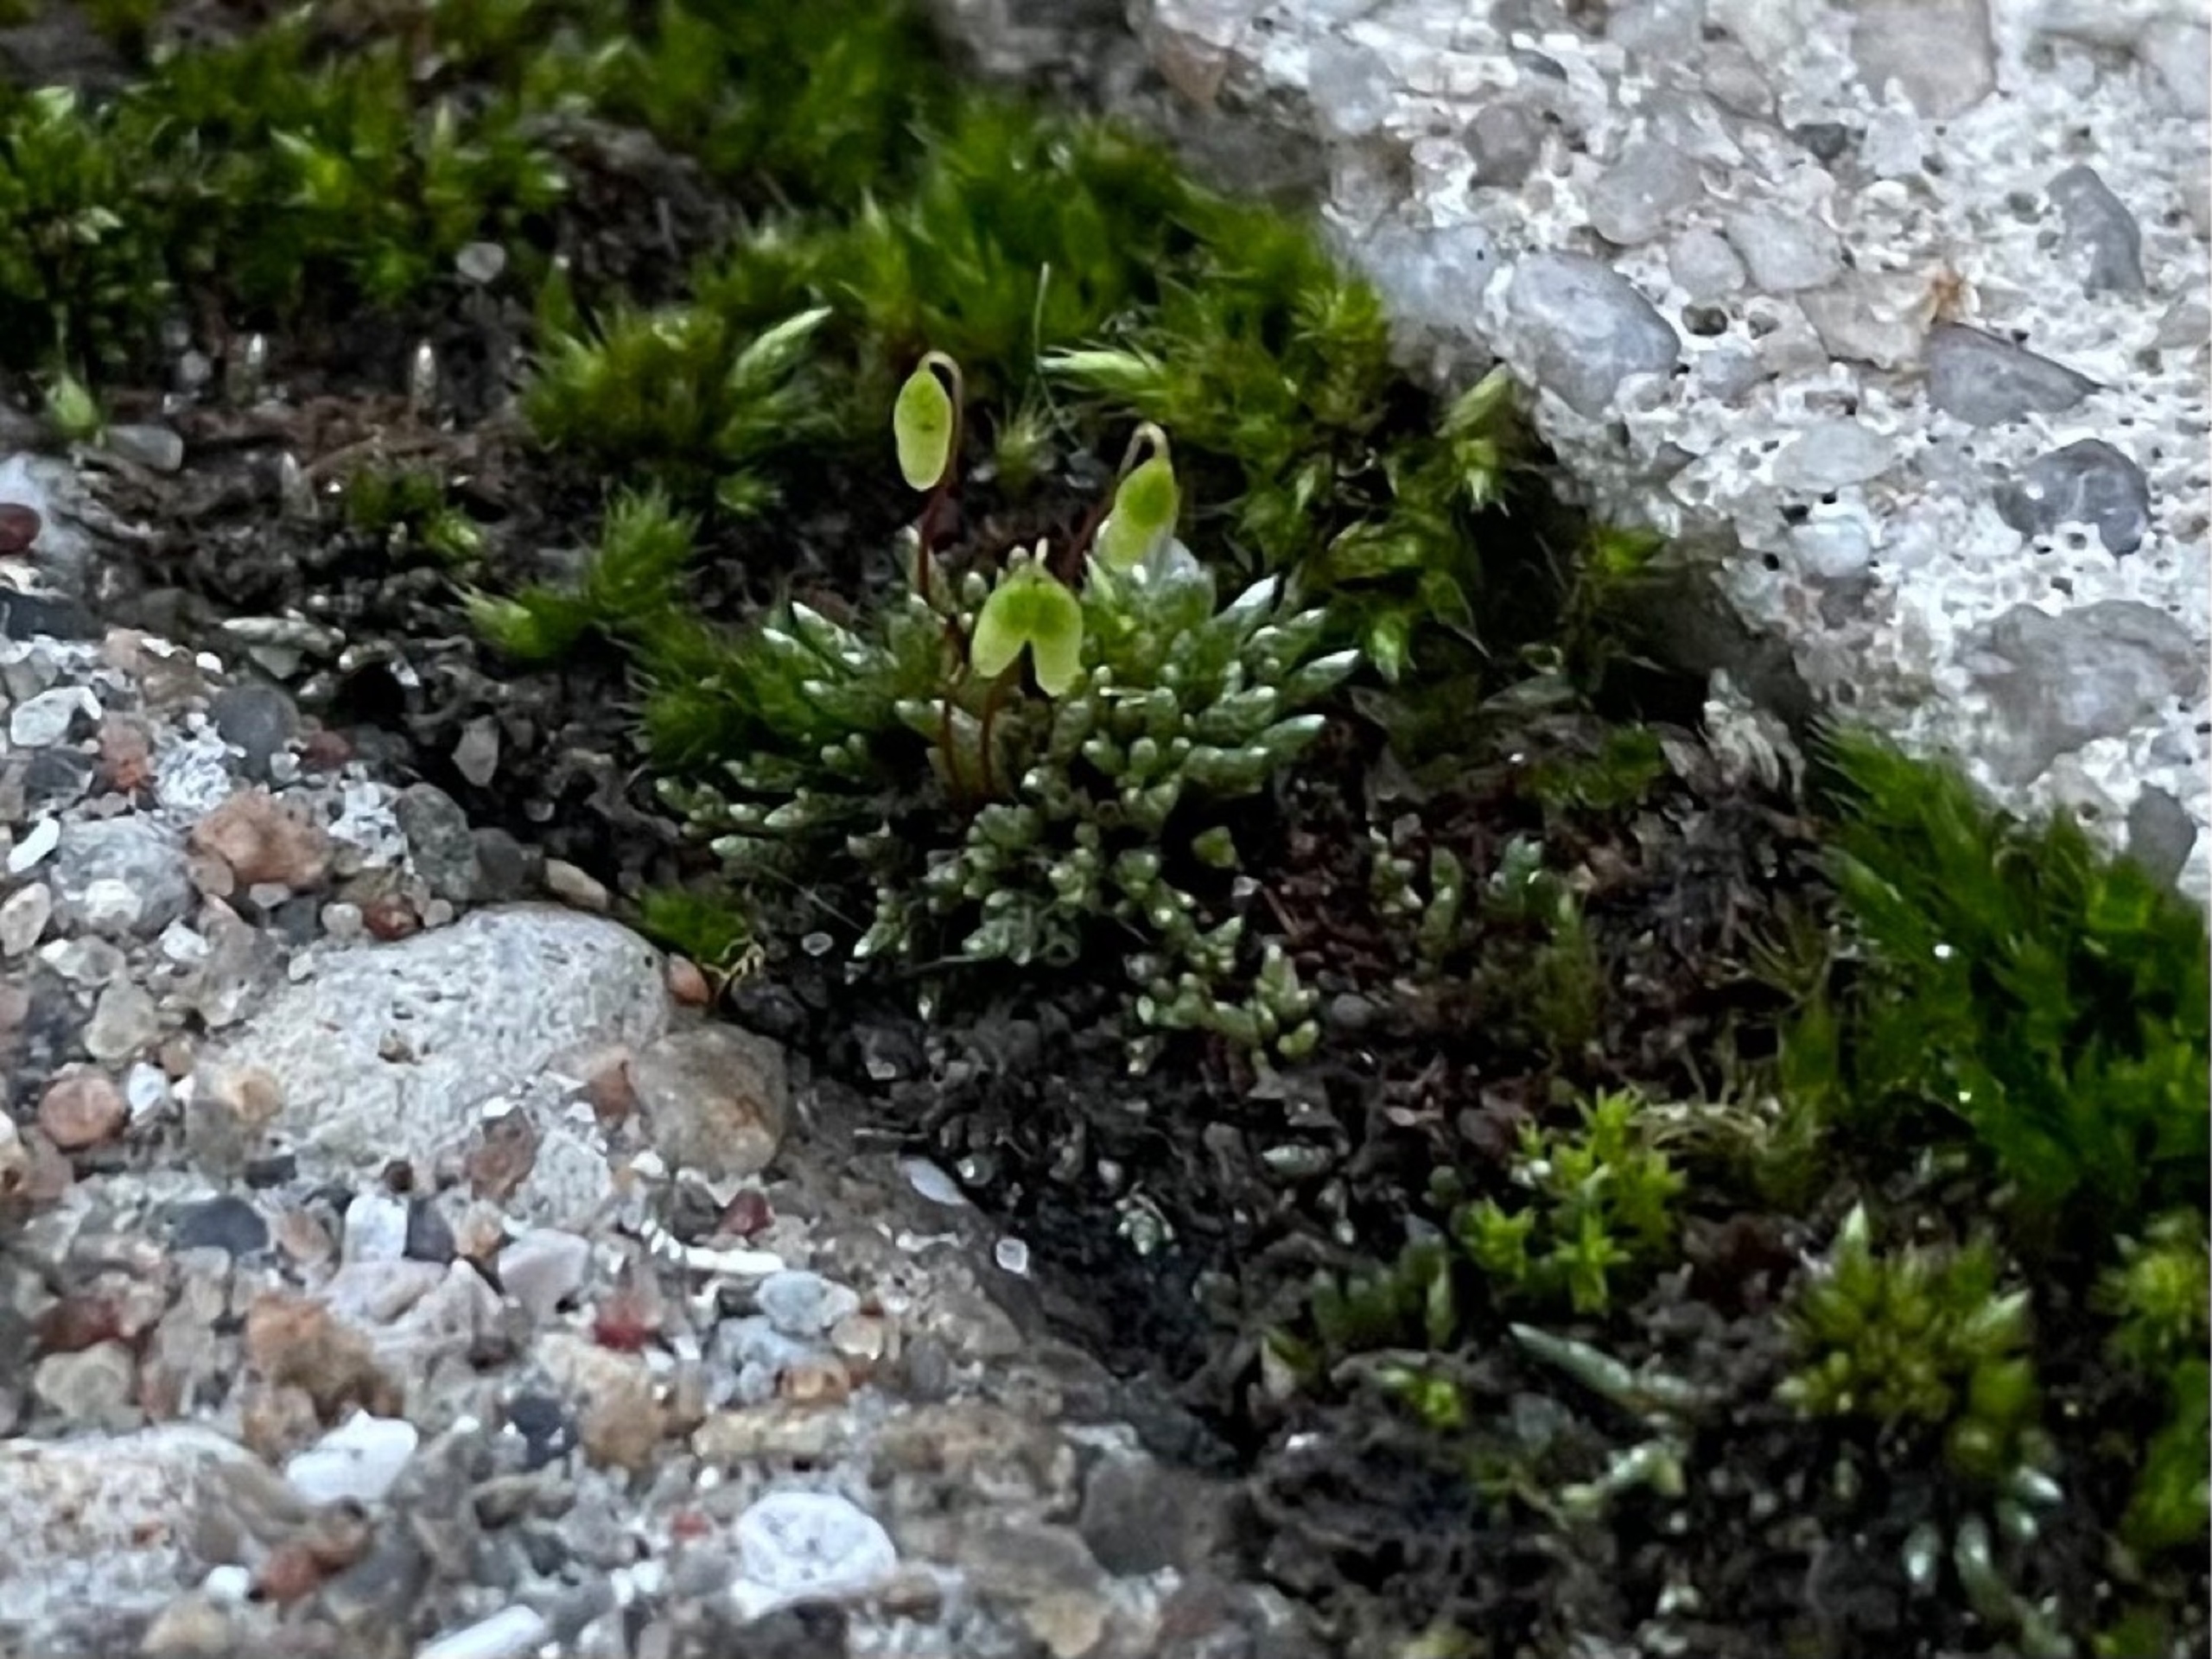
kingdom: Plantae
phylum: Bryophyta
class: Bryopsida
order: Bryales
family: Bryaceae
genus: Bryum
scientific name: Bryum argenteum
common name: Sølv-bryum
